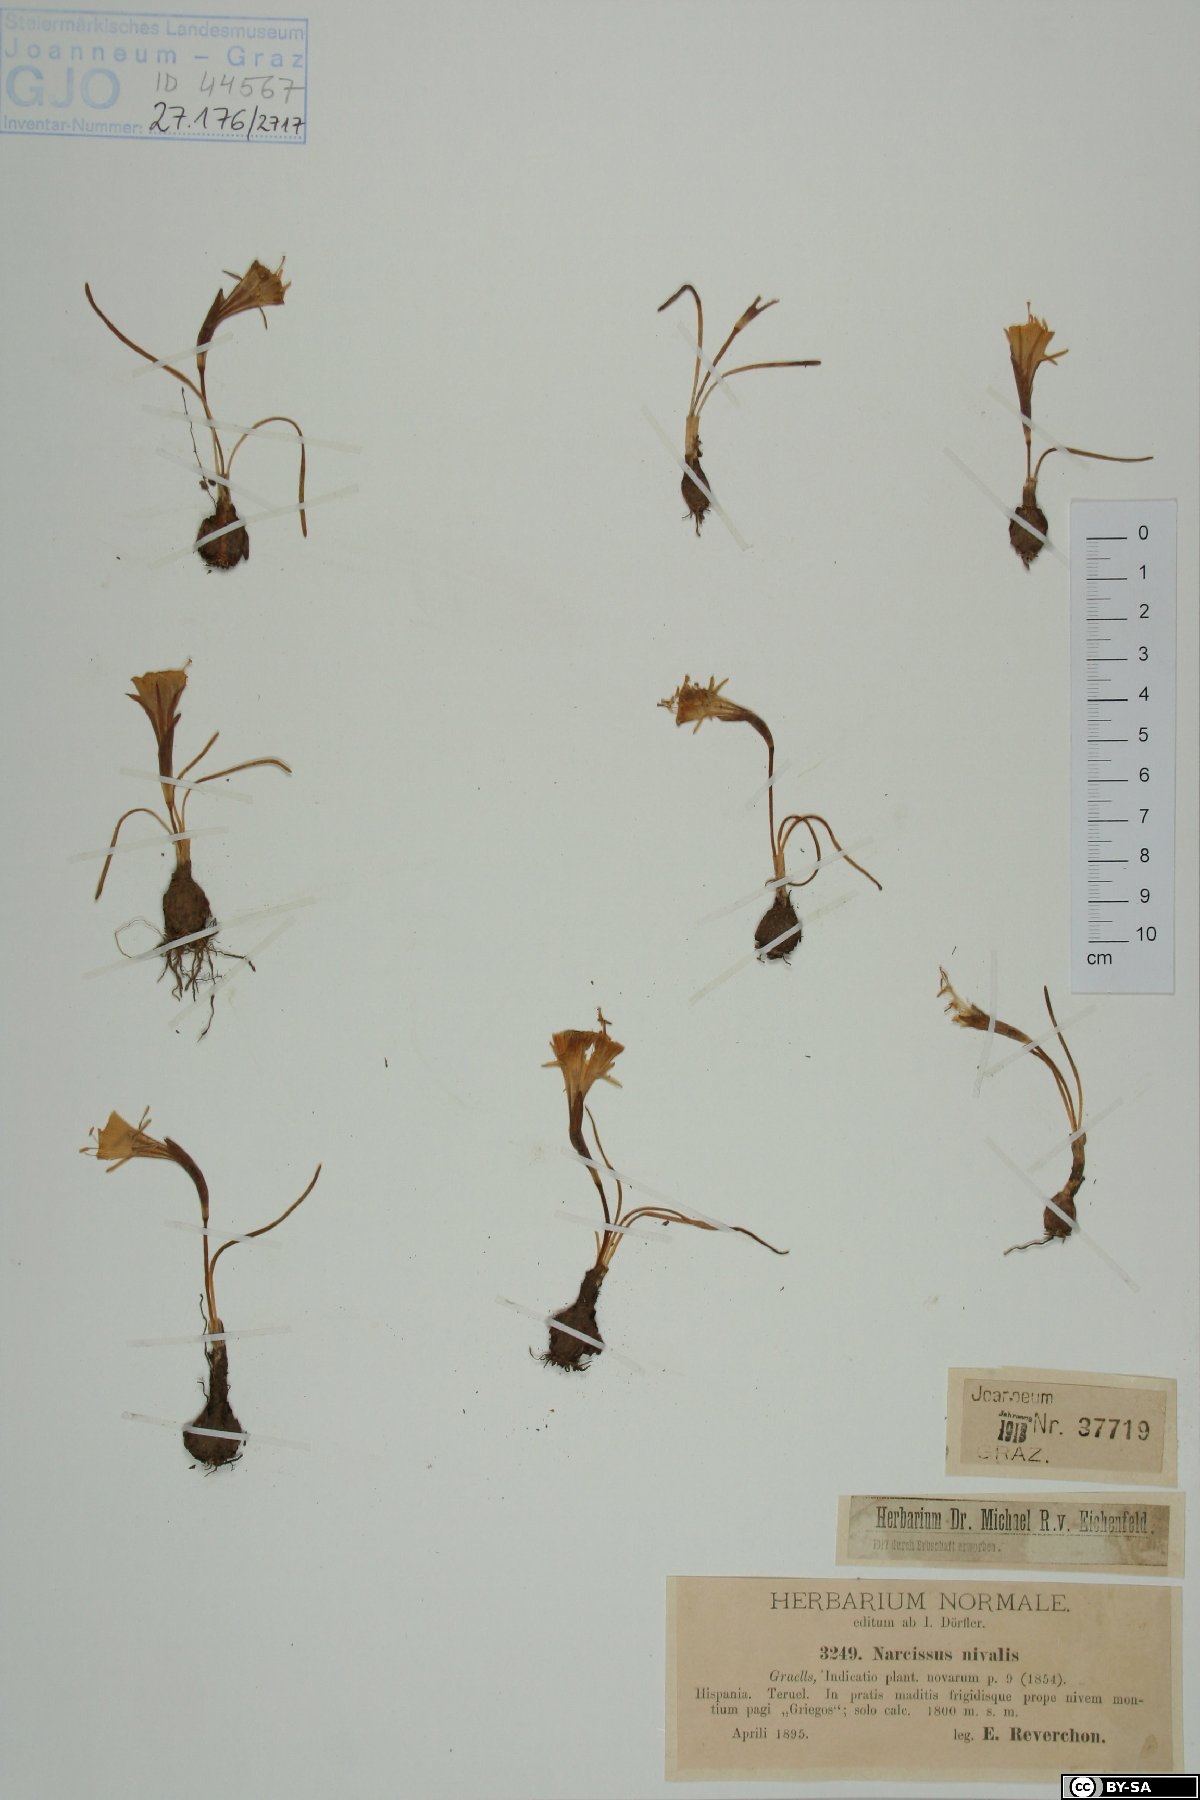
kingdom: Plantae
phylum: Tracheophyta
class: Liliopsida
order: Asparagales
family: Amaryllidaceae
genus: Narcissus
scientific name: Narcissus bulbocodium
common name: Hoop-petticoat daffodil
